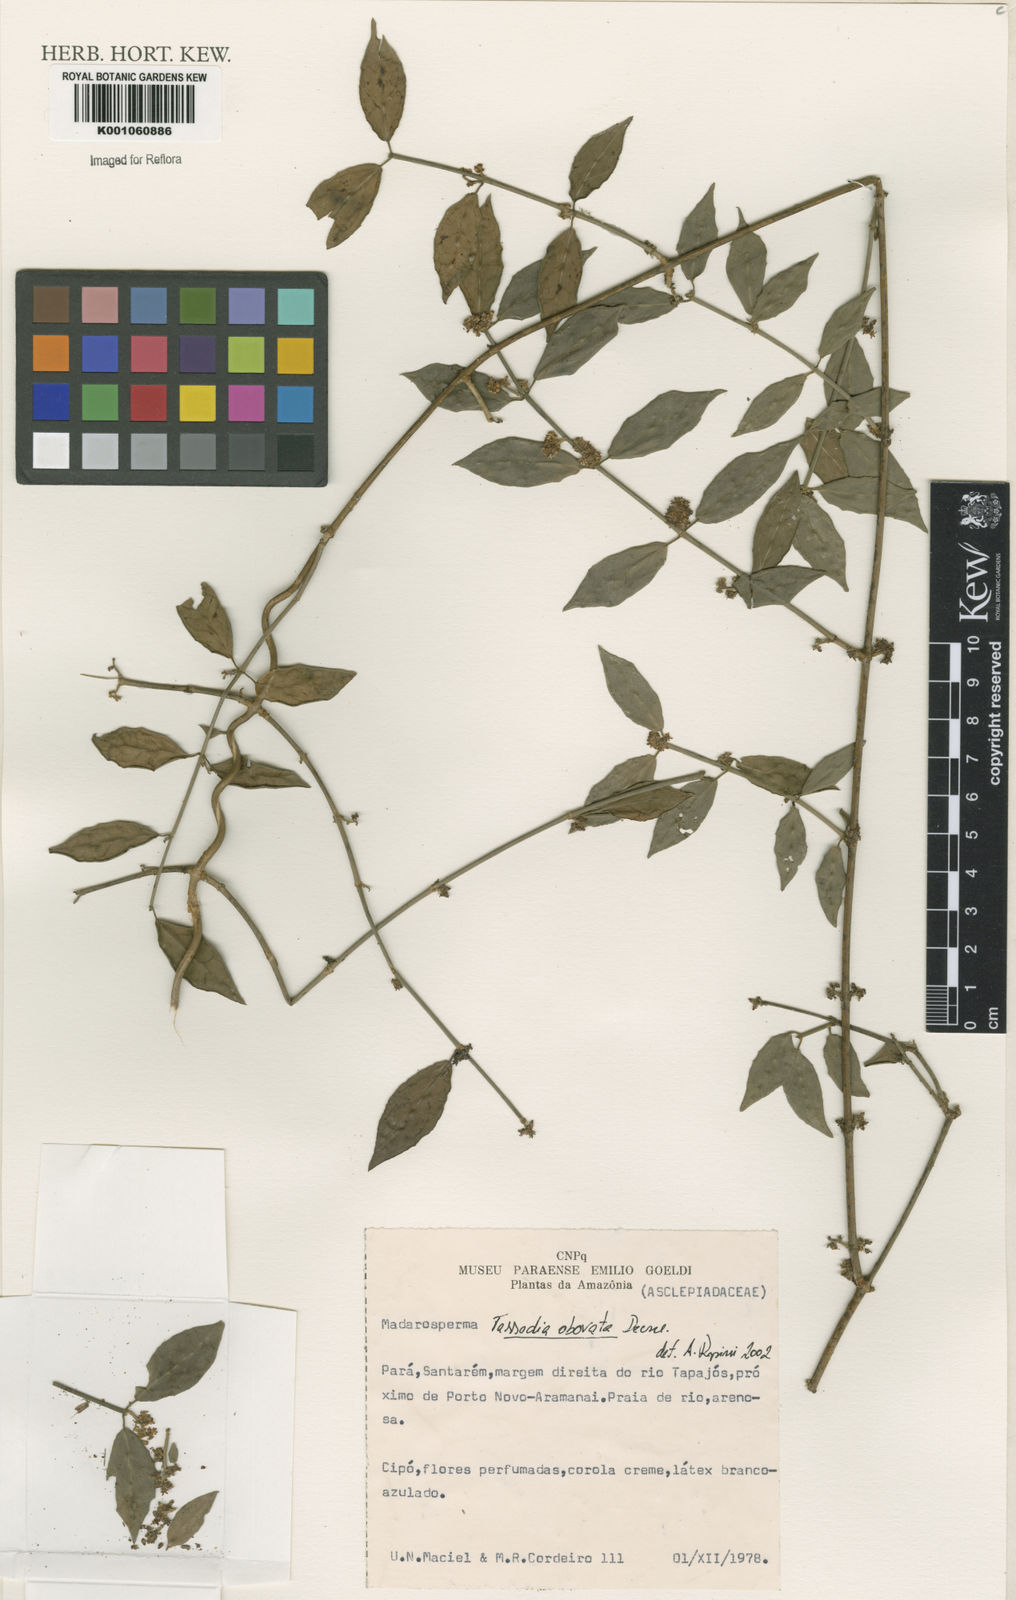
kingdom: Plantae
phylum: Tracheophyta
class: Magnoliopsida
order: Gentianales
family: Apocynaceae
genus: Tassadia
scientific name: Tassadia obovata
